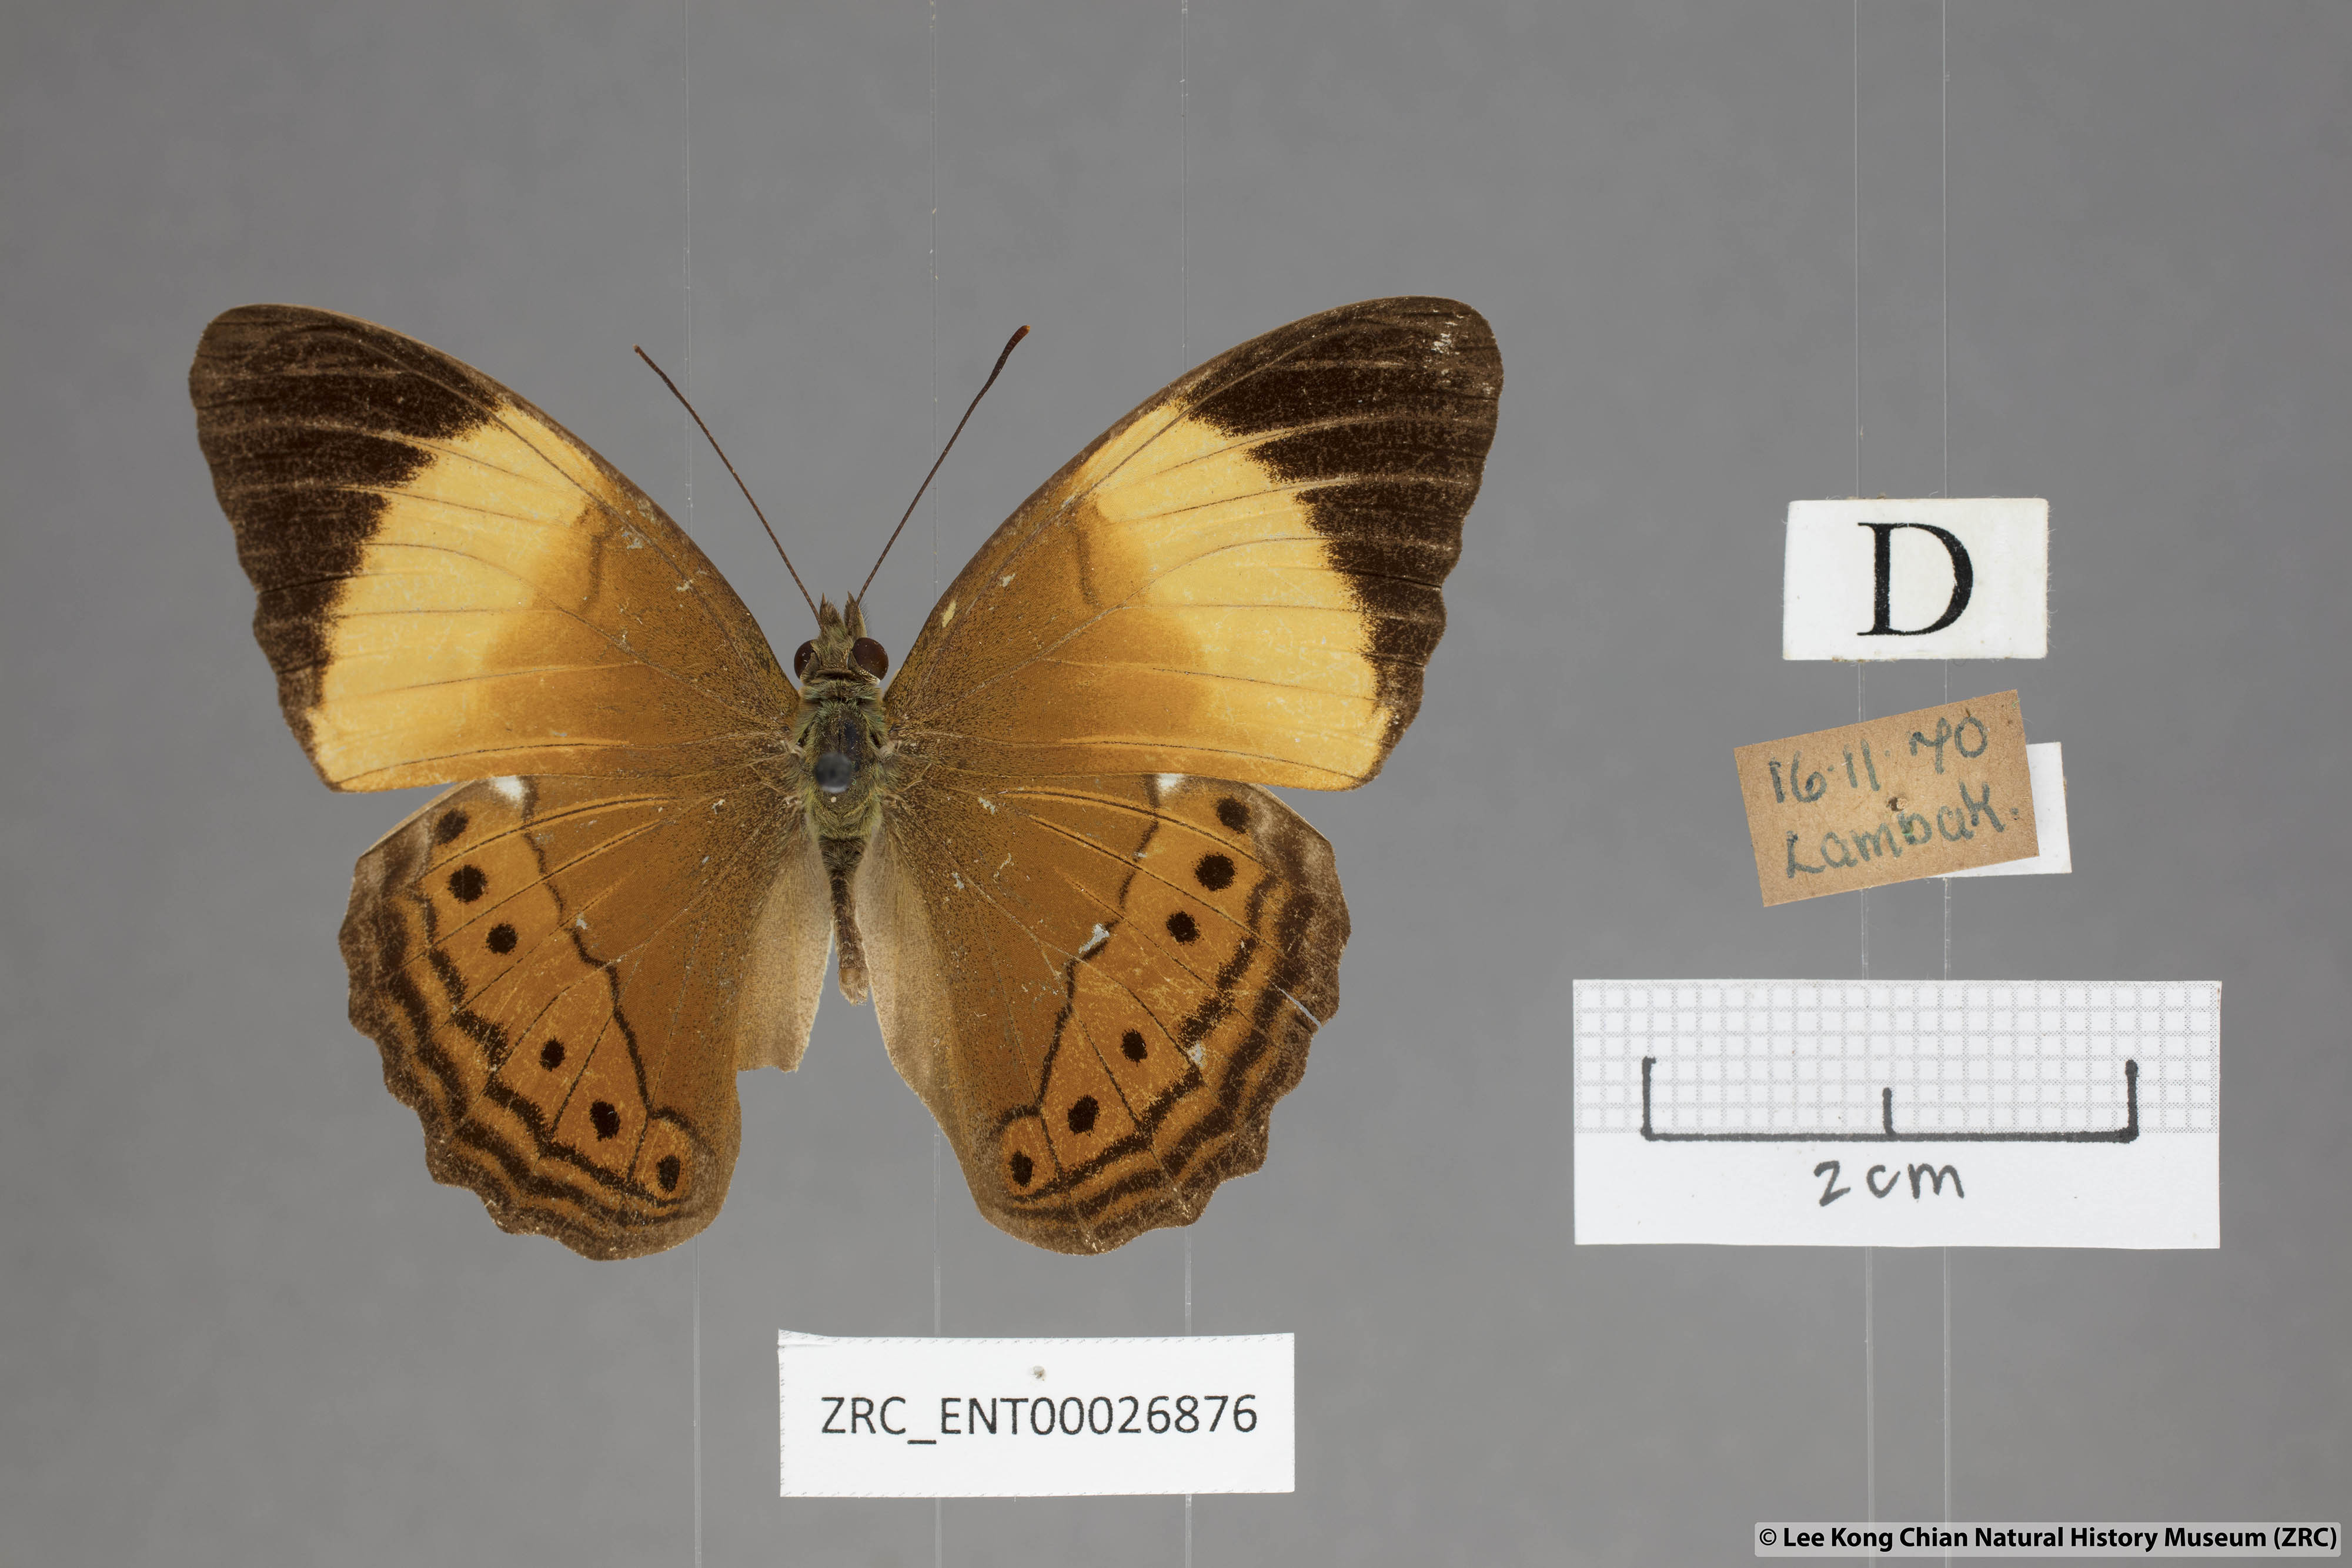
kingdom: Animalia
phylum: Arthropoda
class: Insecta
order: Lepidoptera
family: Nymphalidae
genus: Cirrochroa
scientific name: Cirrochroa orissa
